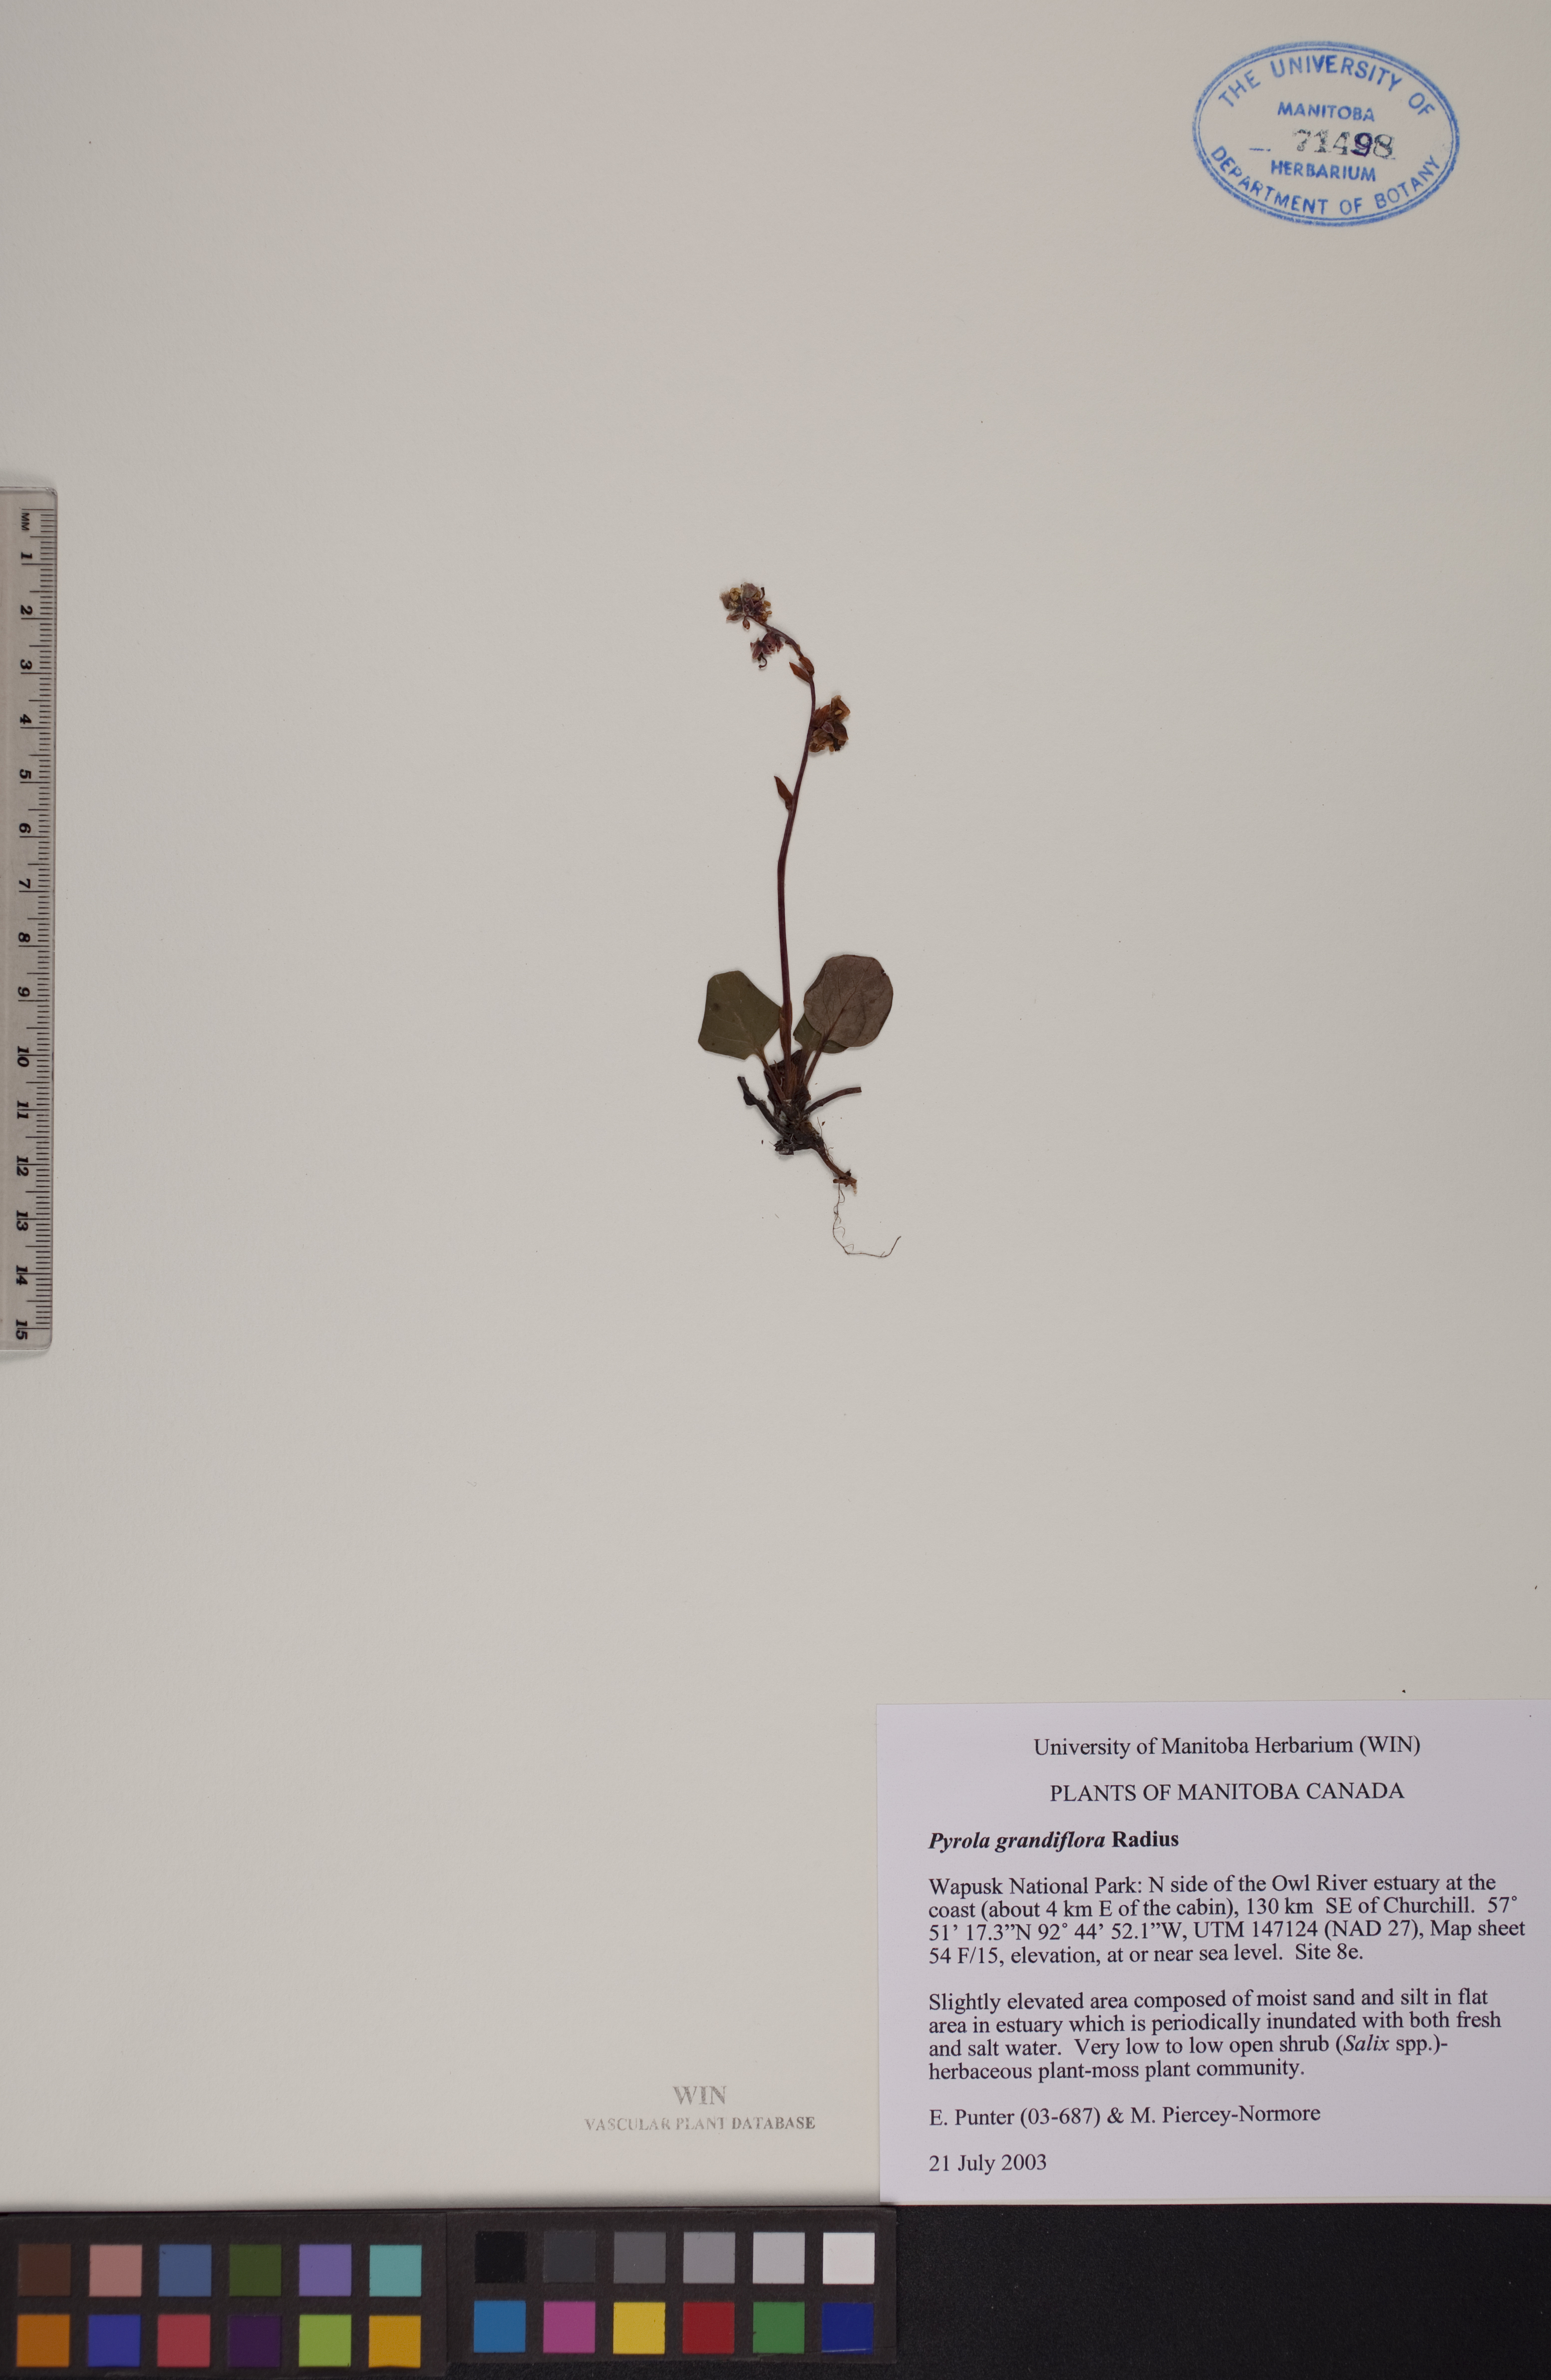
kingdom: Plantae
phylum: Tracheophyta
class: Magnoliopsida
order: Ericales
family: Ericaceae
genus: Pyrola
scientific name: Pyrola grandiflora
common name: Arctic pyrola
